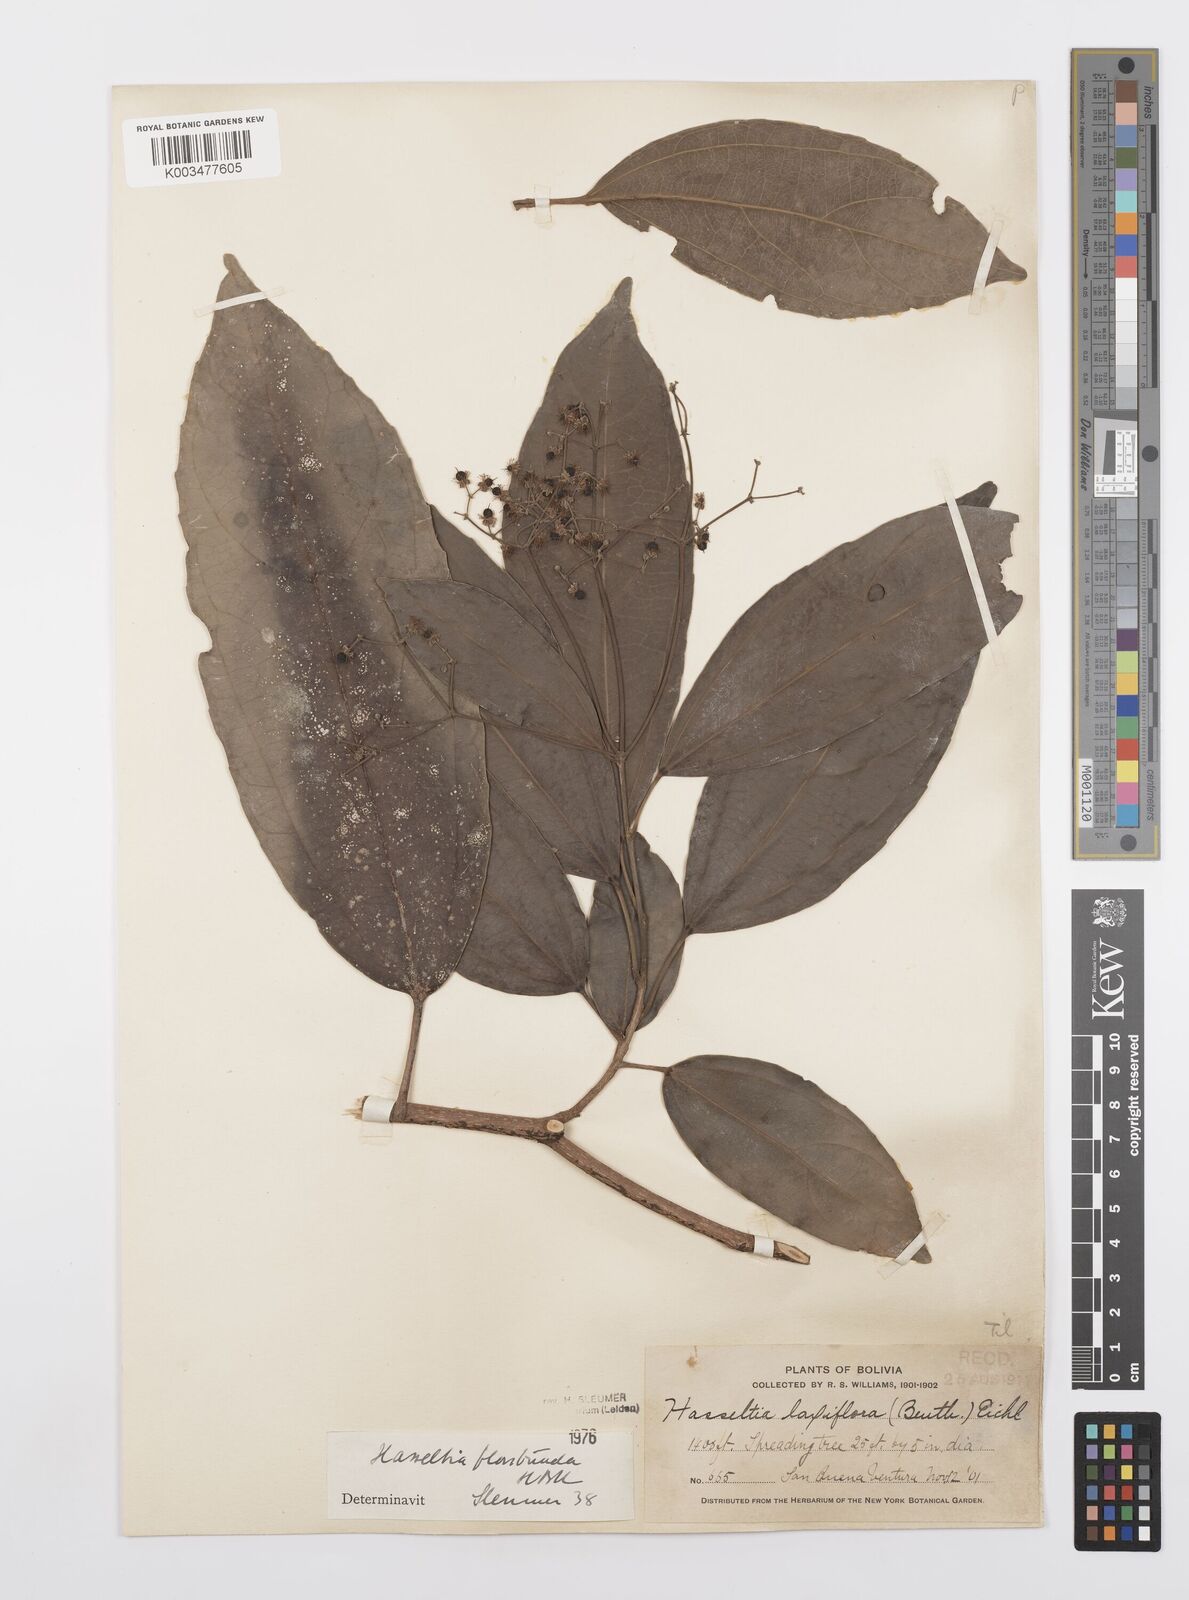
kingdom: Plantae
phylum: Tracheophyta
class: Magnoliopsida
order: Malpighiales
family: Salicaceae
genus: Hasseltia
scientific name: Hasseltia floribunda
